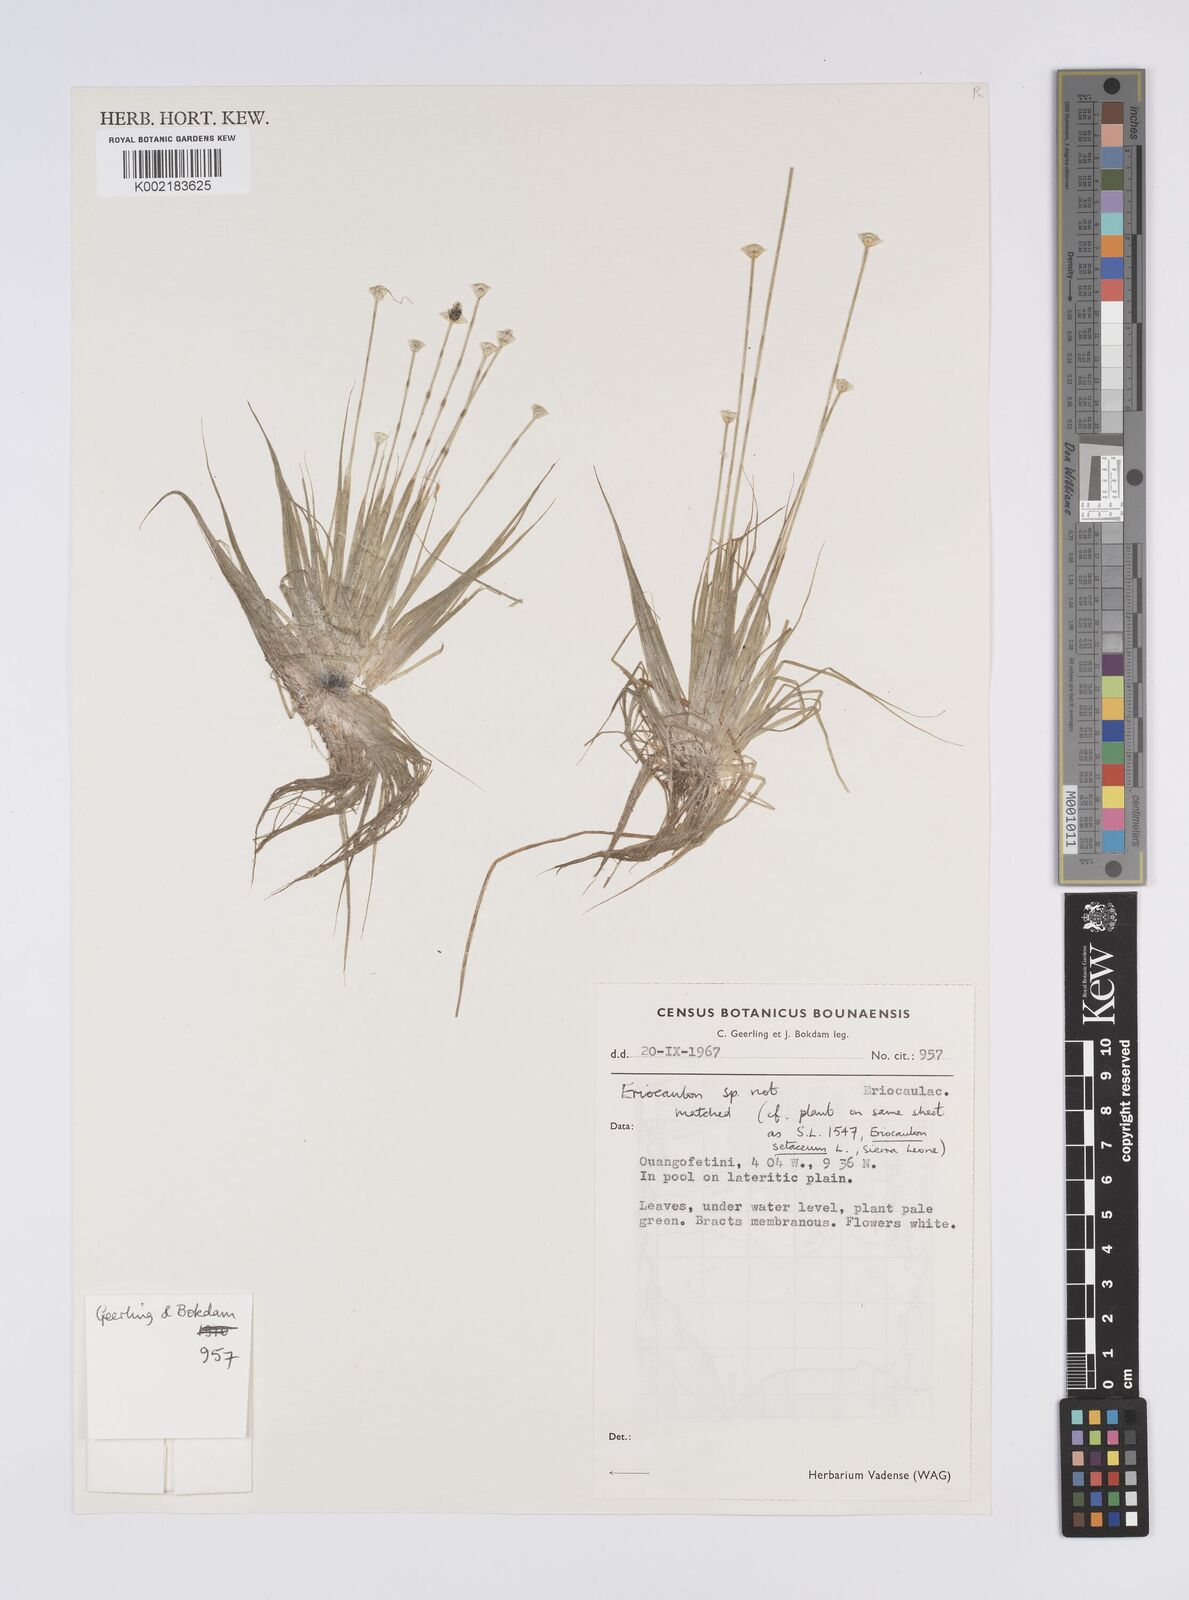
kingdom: Plantae
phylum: Tracheophyta
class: Liliopsida
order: Poales
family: Eriocaulaceae
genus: Eriocaulon
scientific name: Eriocaulon
